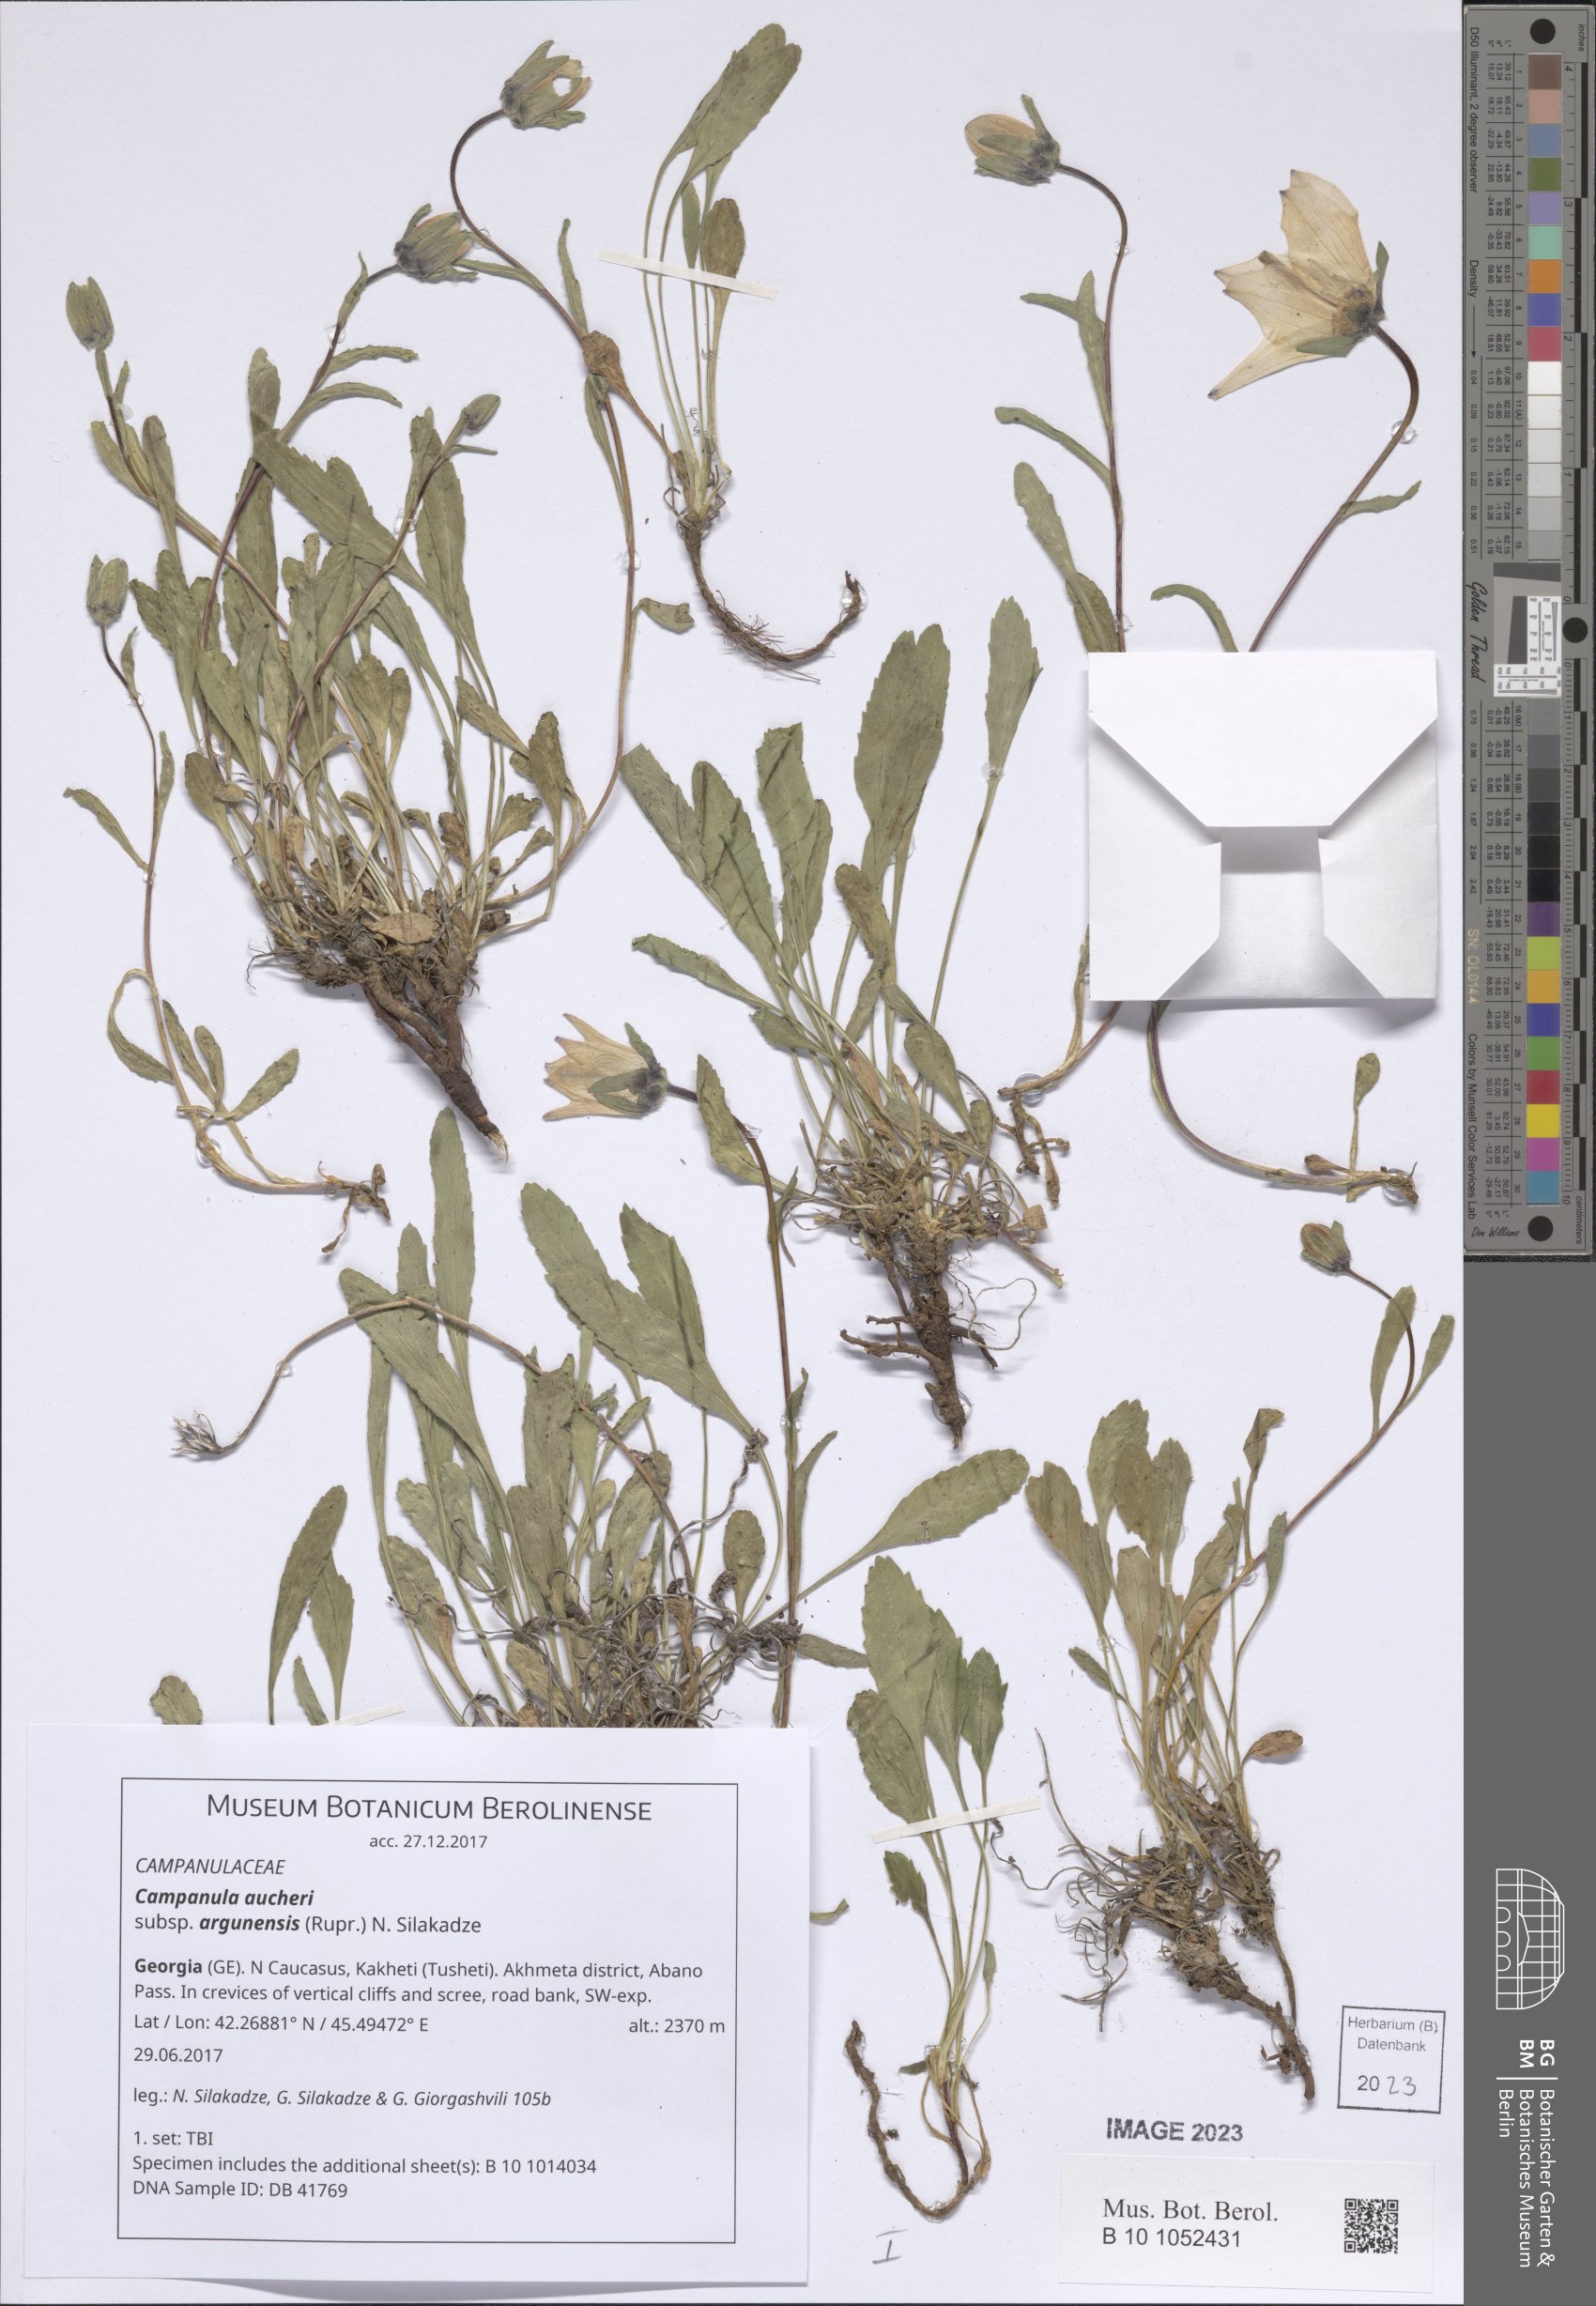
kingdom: Plantae
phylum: Tracheophyta
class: Magnoliopsida
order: Asterales
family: Campanulaceae
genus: Campanula
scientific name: Campanula saxifraga
